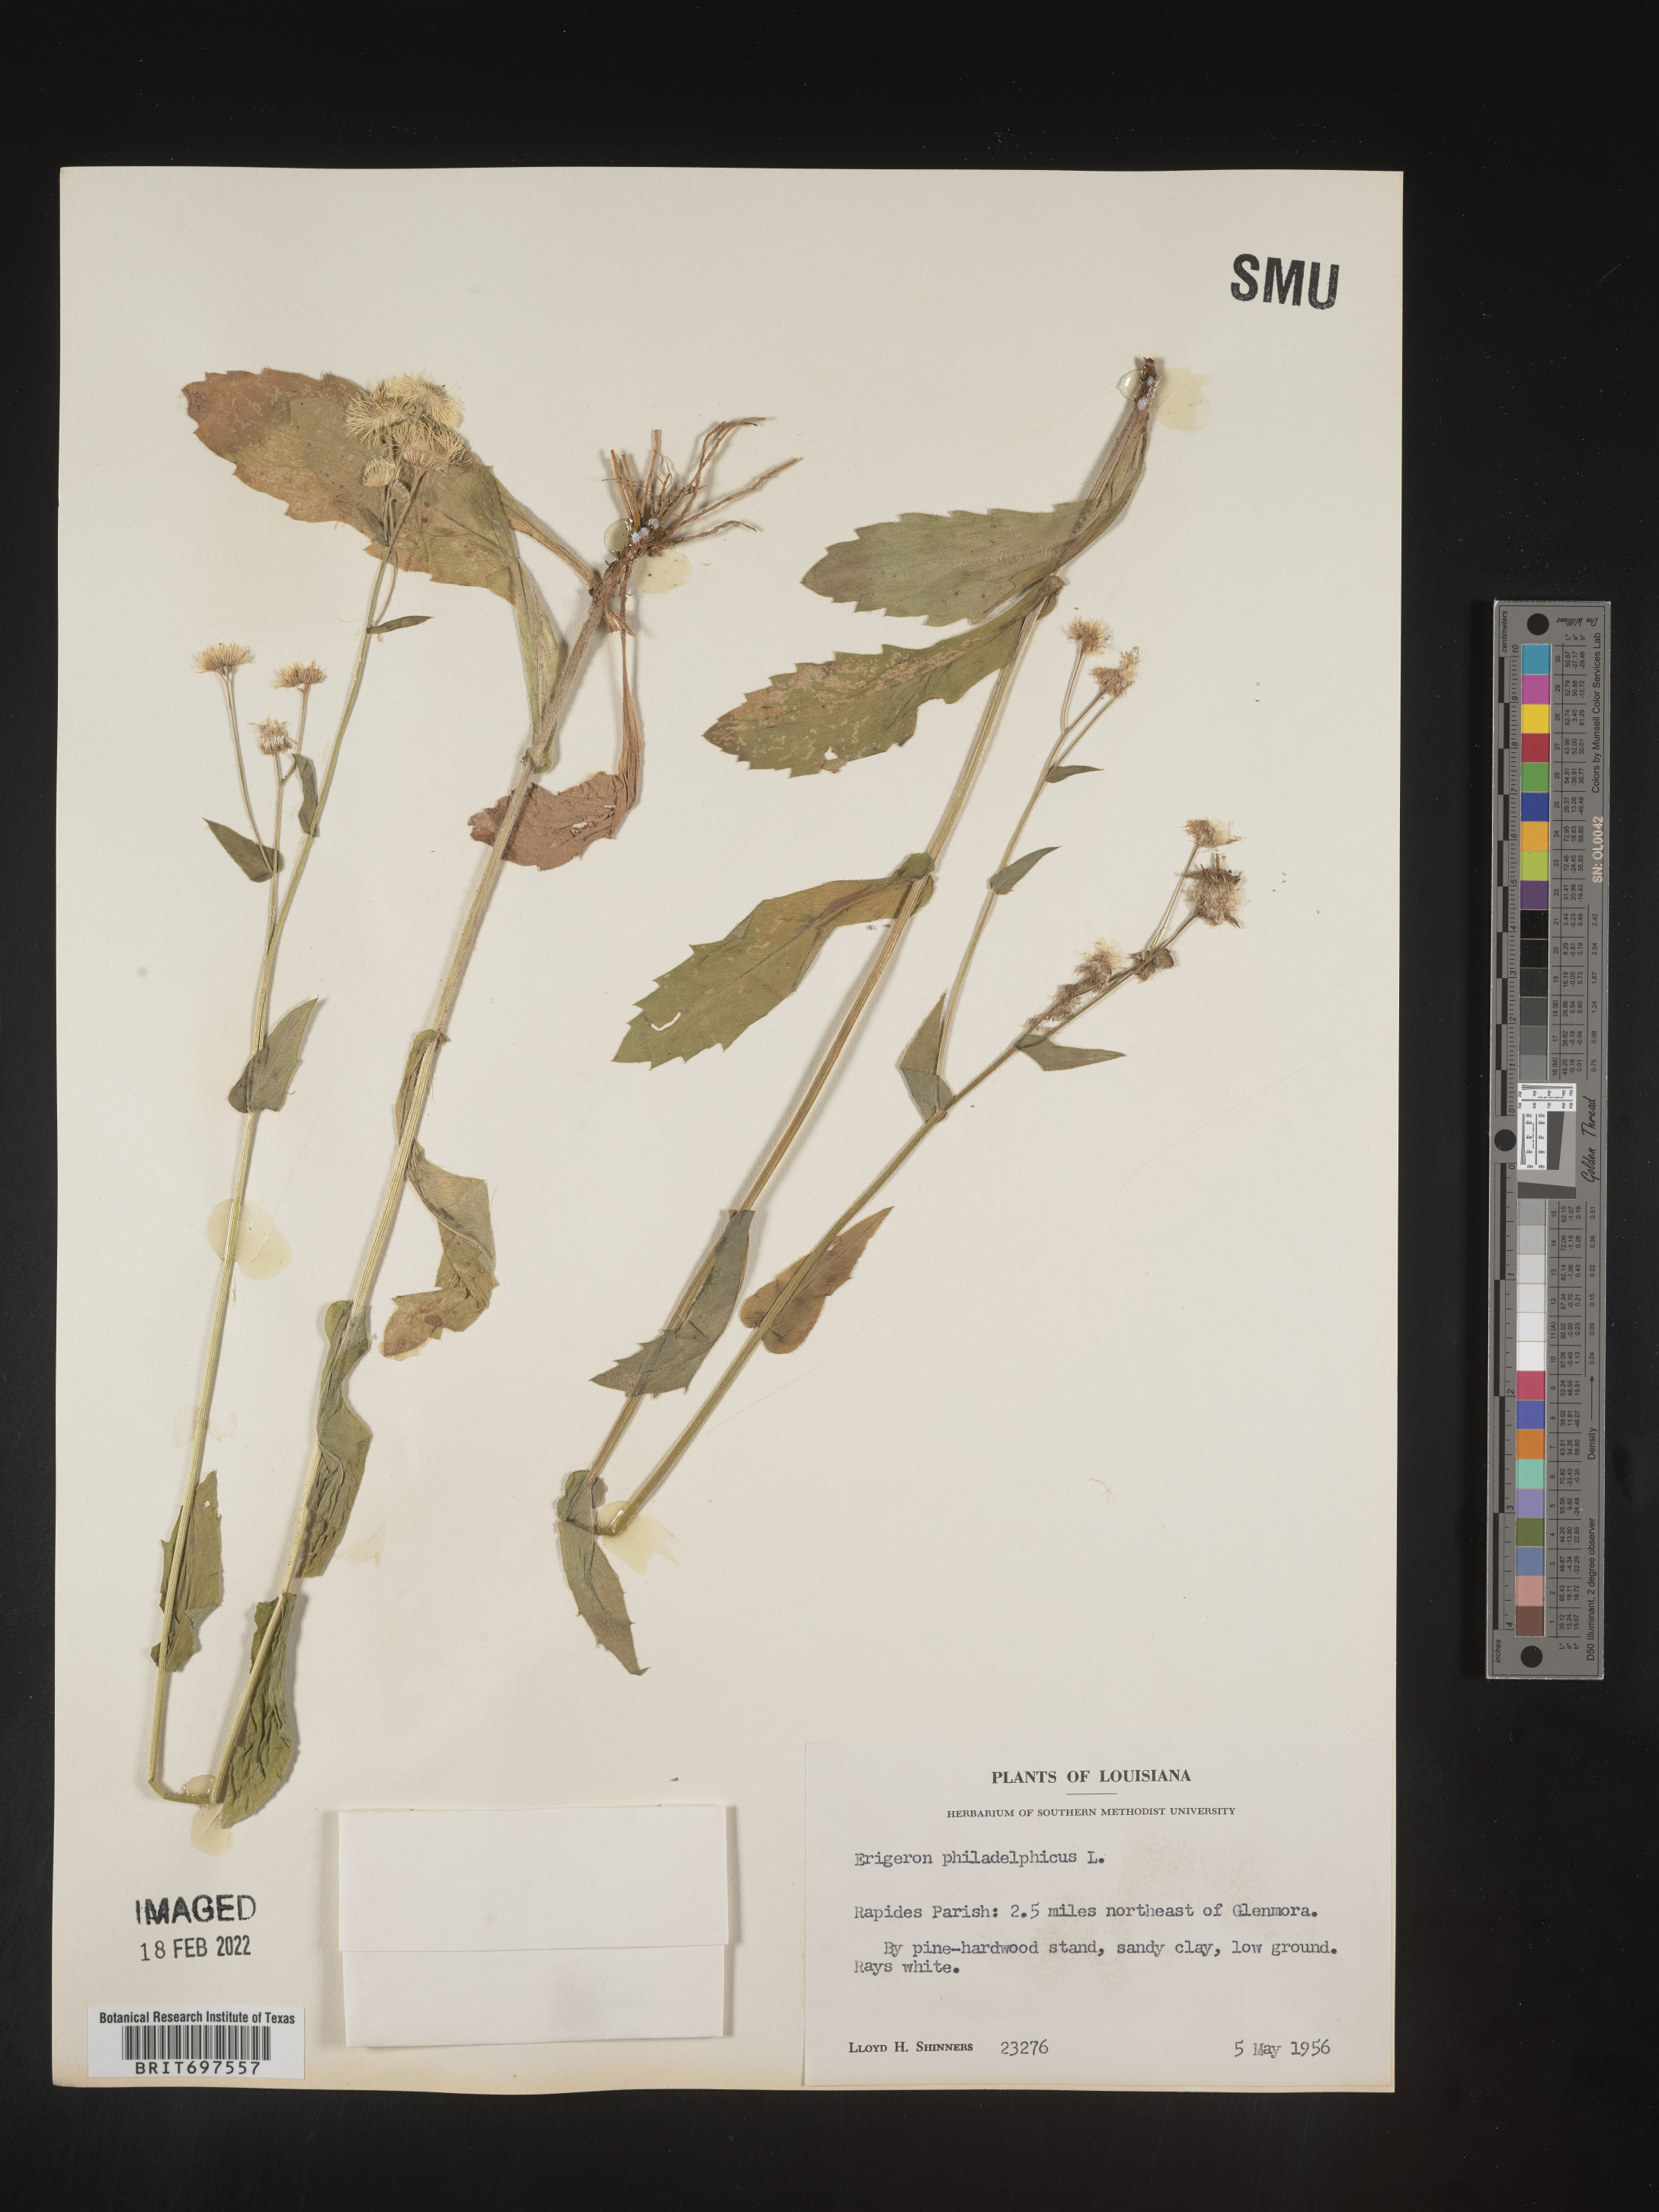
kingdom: Plantae
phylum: Tracheophyta
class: Magnoliopsida
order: Asterales
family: Asteraceae
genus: Erigeron
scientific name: Erigeron philadelphicus
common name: Robin's-plantain
